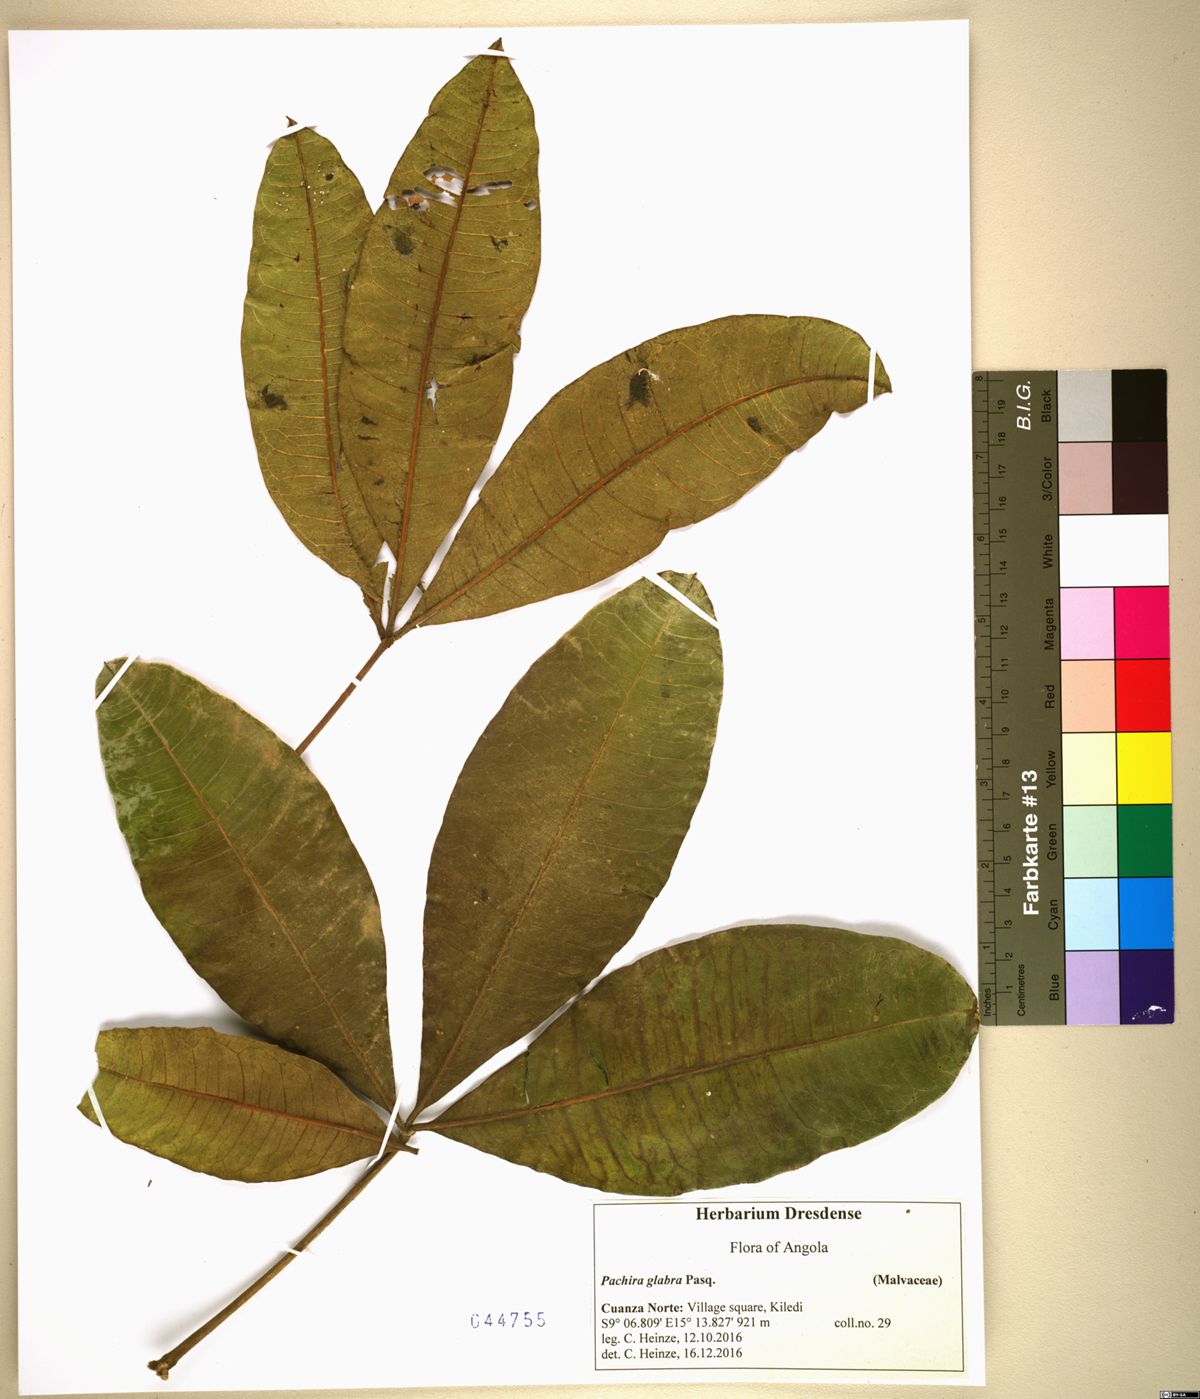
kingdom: Plantae
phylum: Tracheophyta
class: Magnoliopsida
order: Malvales
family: Malvaceae
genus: Pachira
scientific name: Pachira glabra
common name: Moneytree
